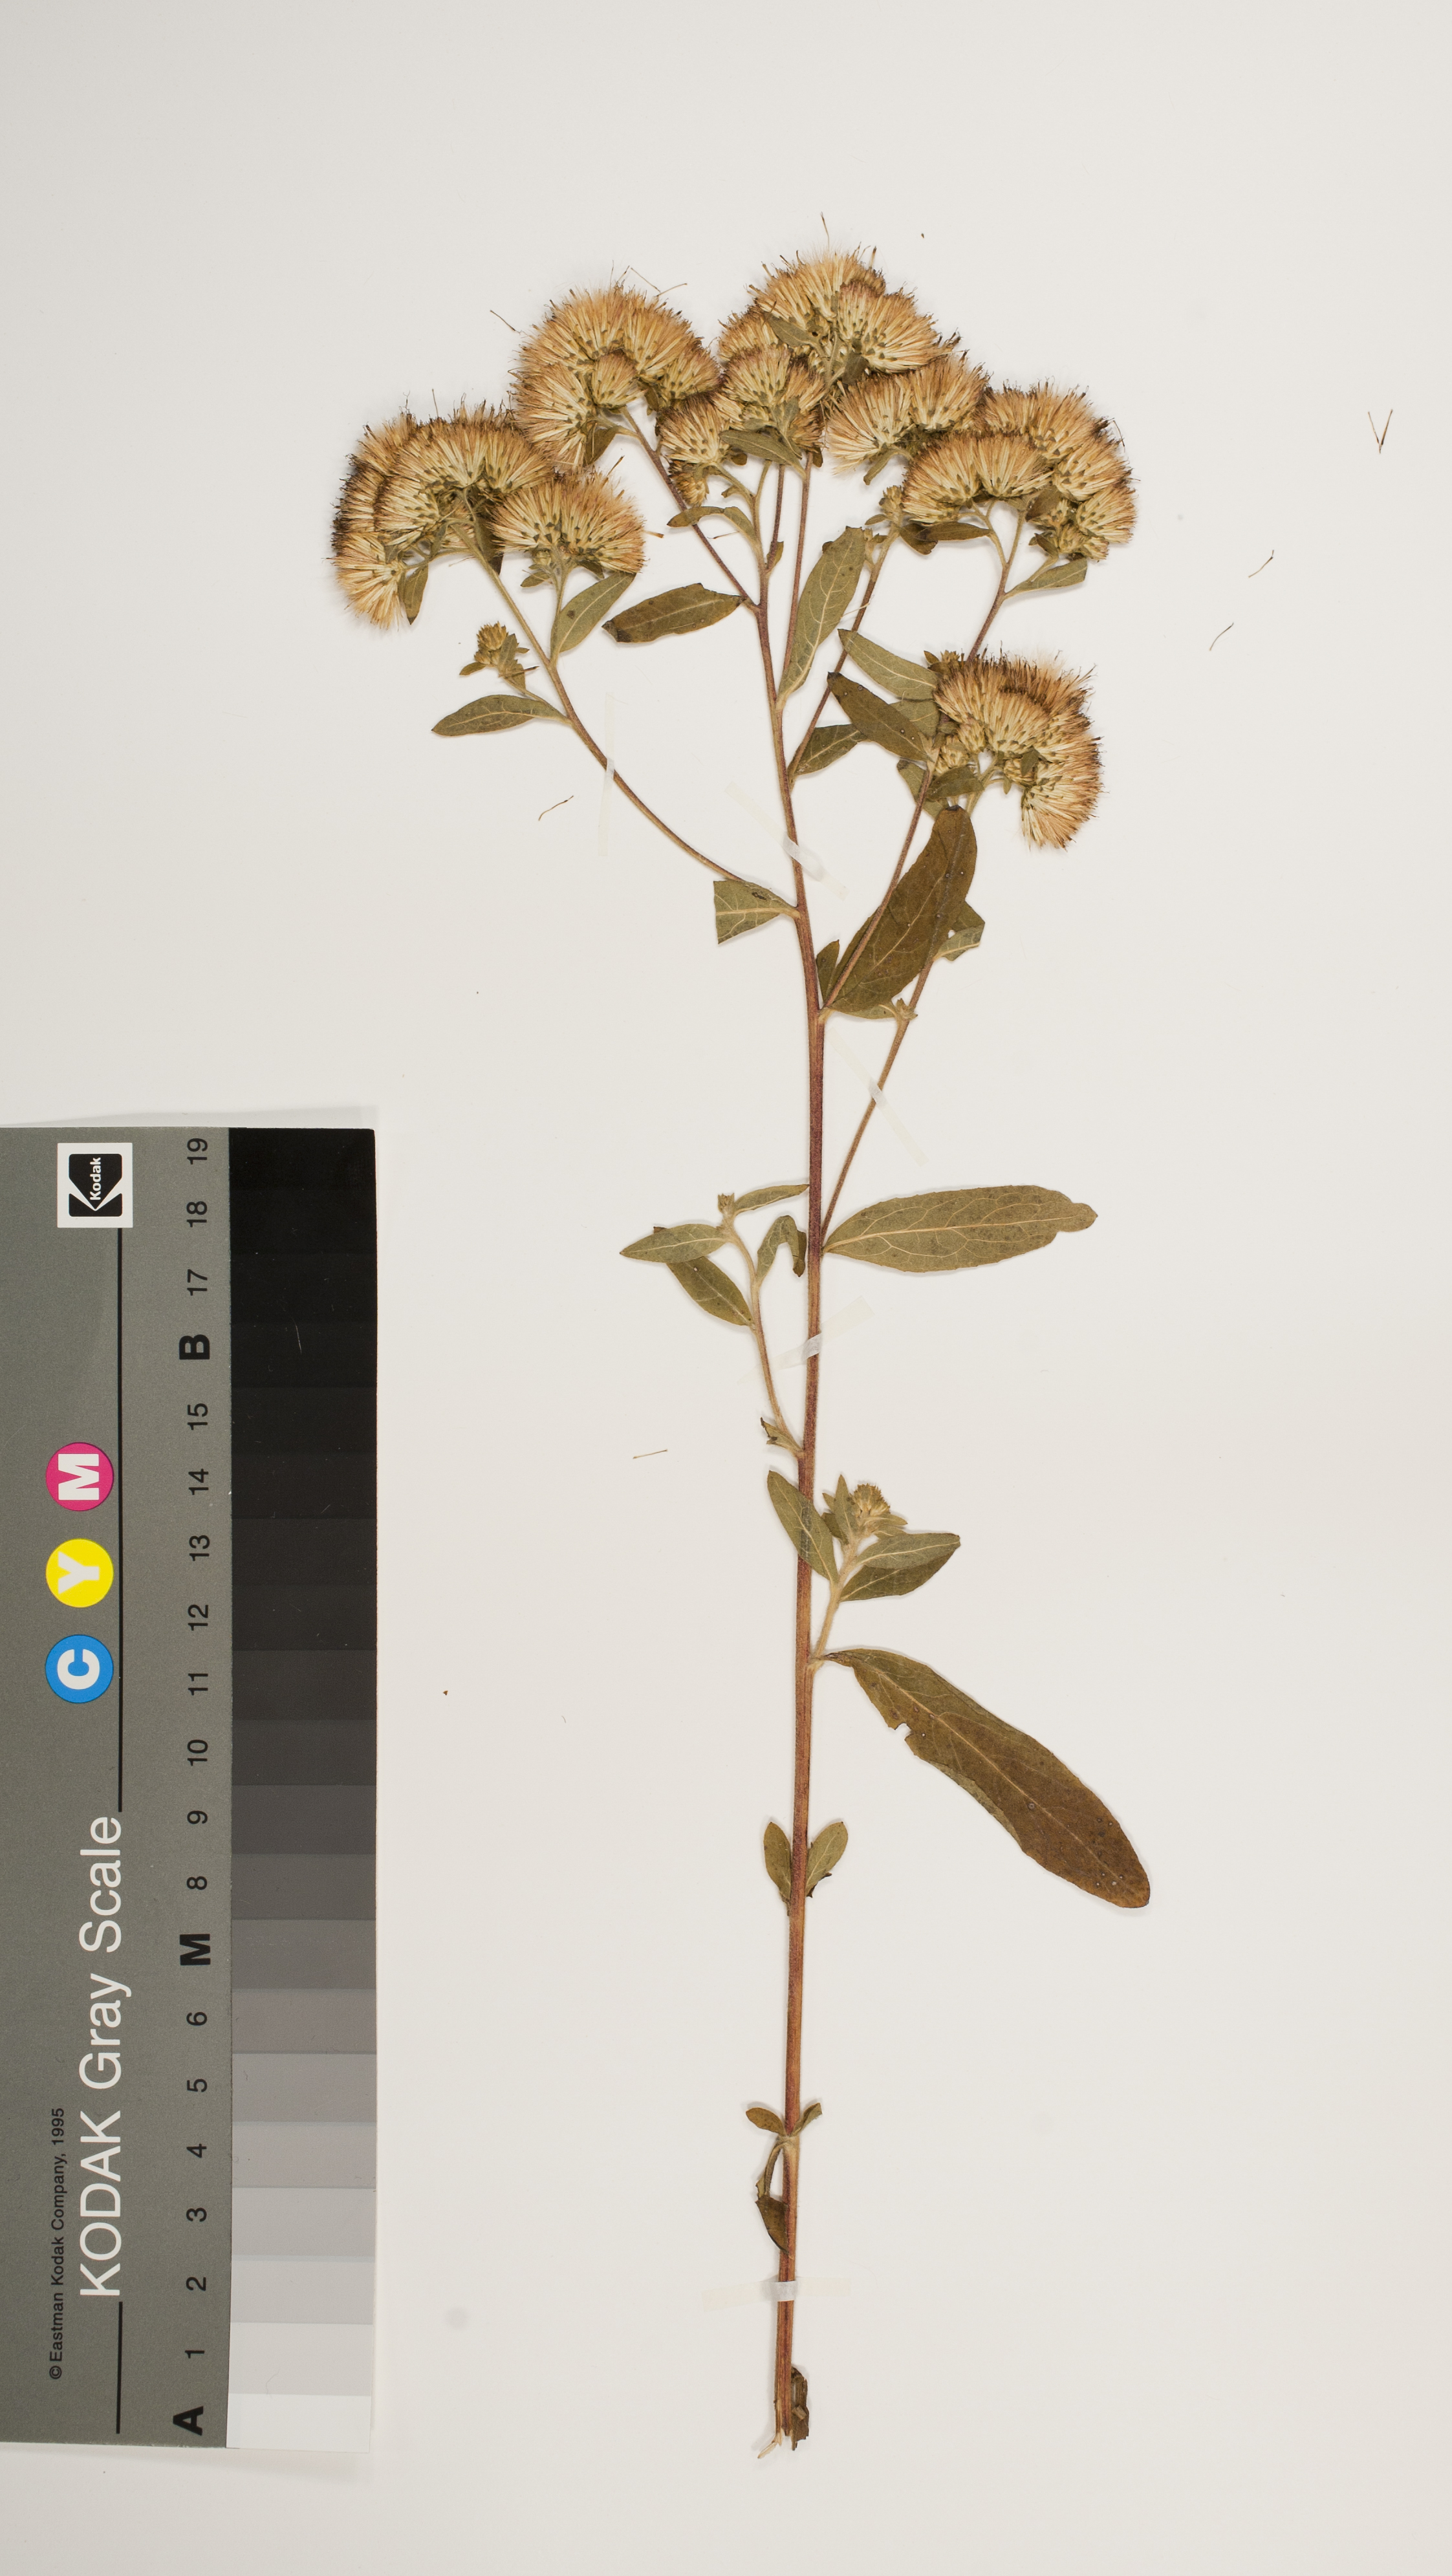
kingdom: Plantae
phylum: Tracheophyta
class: Magnoliopsida
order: Asterales
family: Asteraceae
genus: Pentanema
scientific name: Pentanema squarrosum
